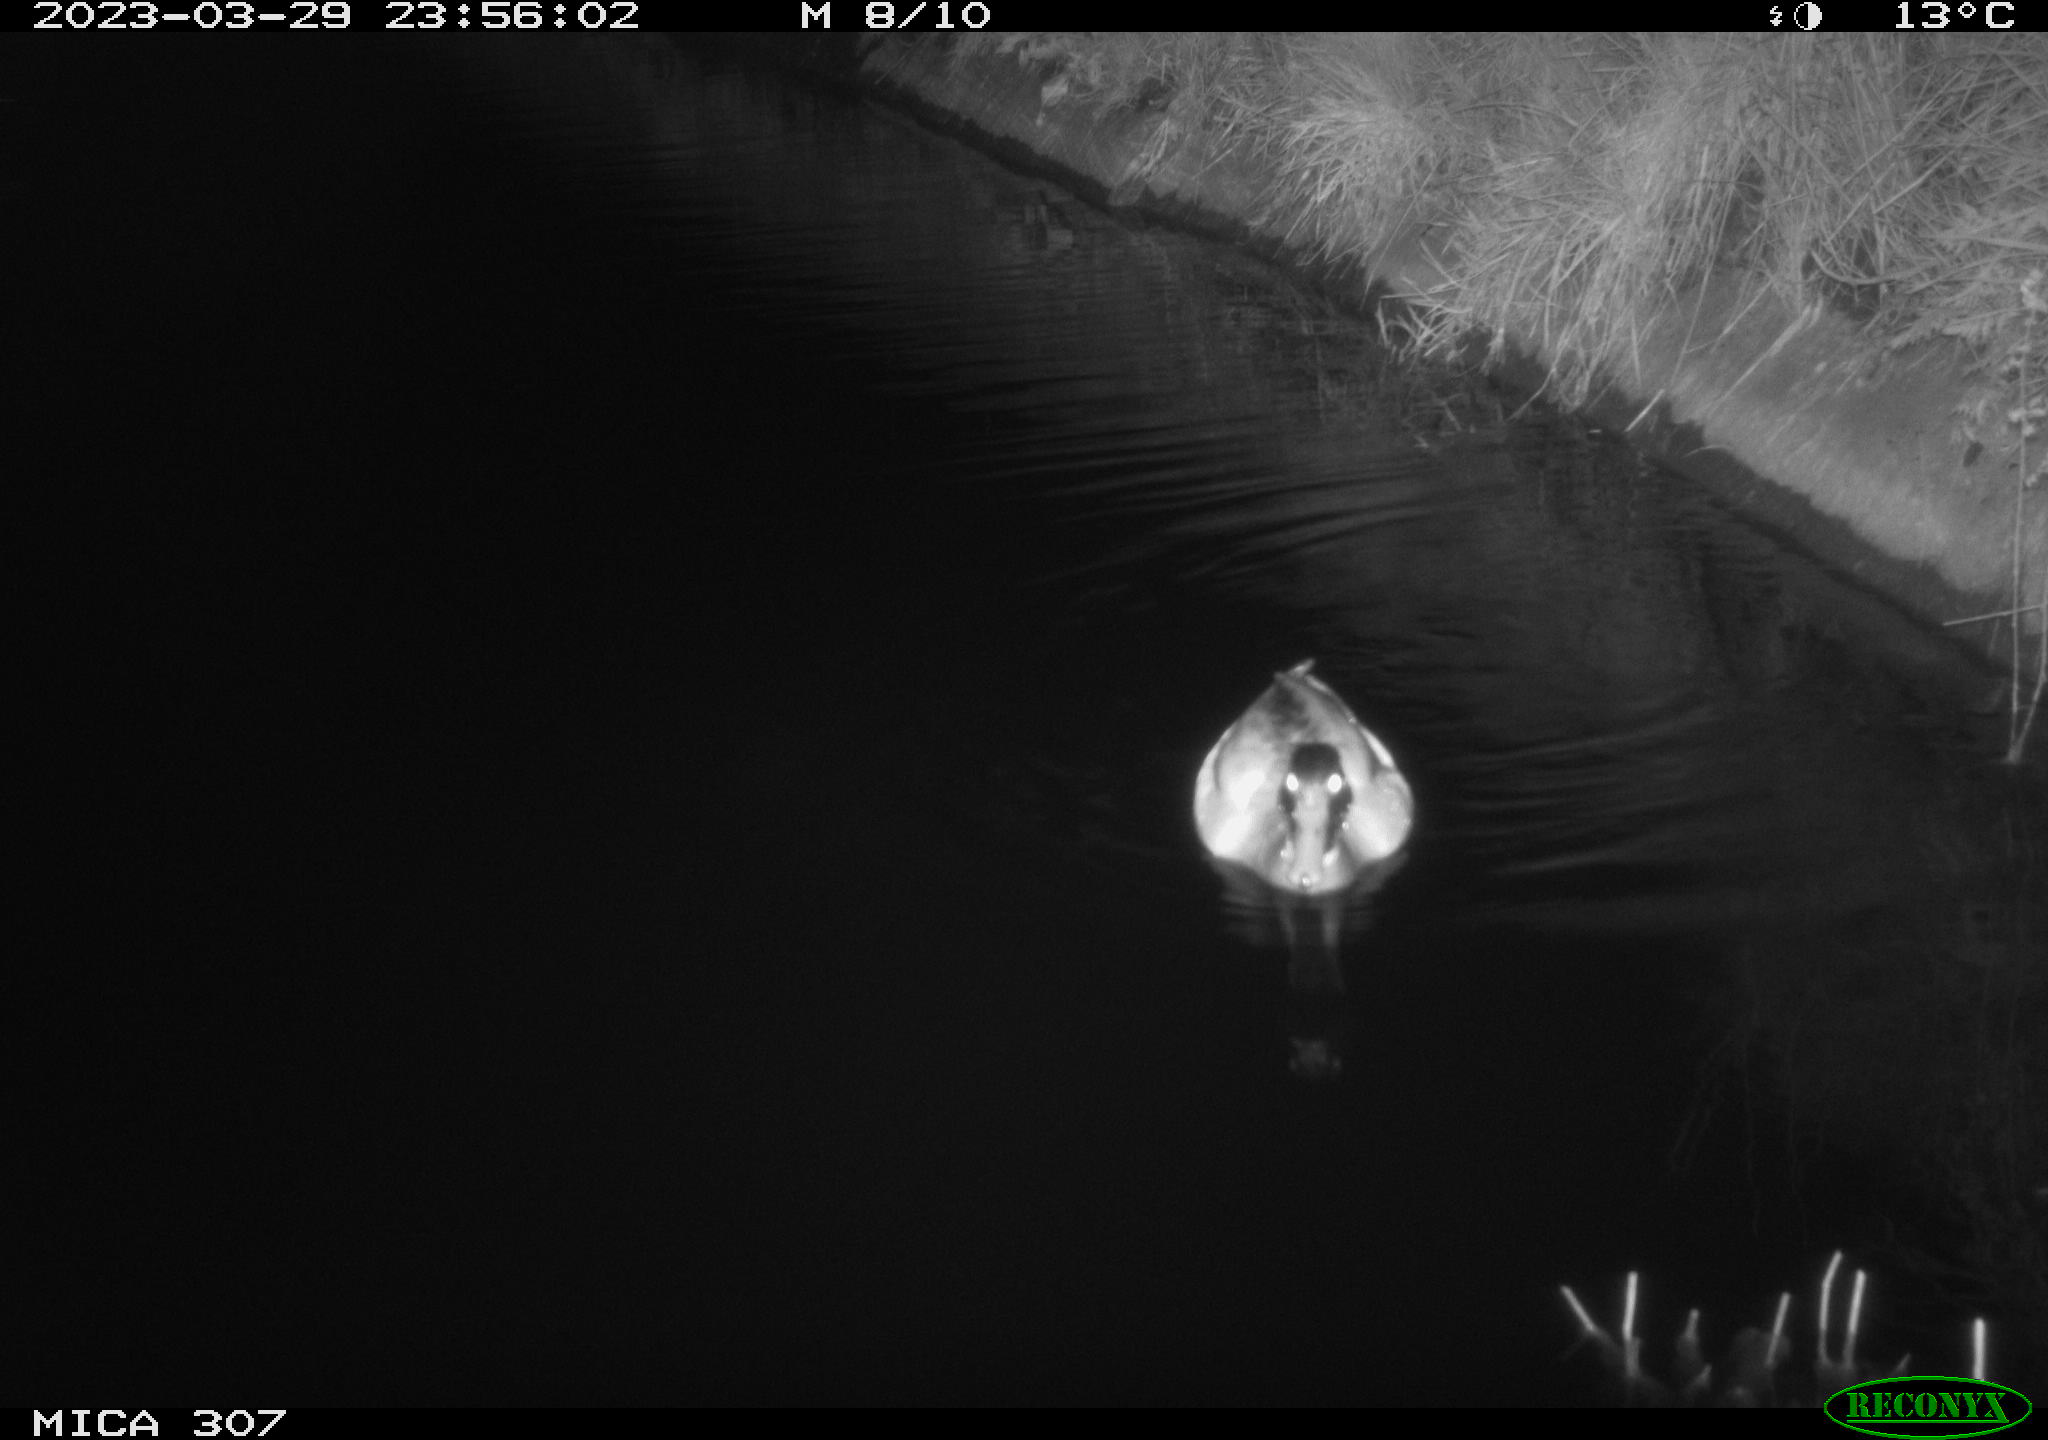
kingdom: Animalia
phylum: Chordata
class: Aves
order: Anseriformes
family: Anatidae
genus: Anas
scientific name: Anas
